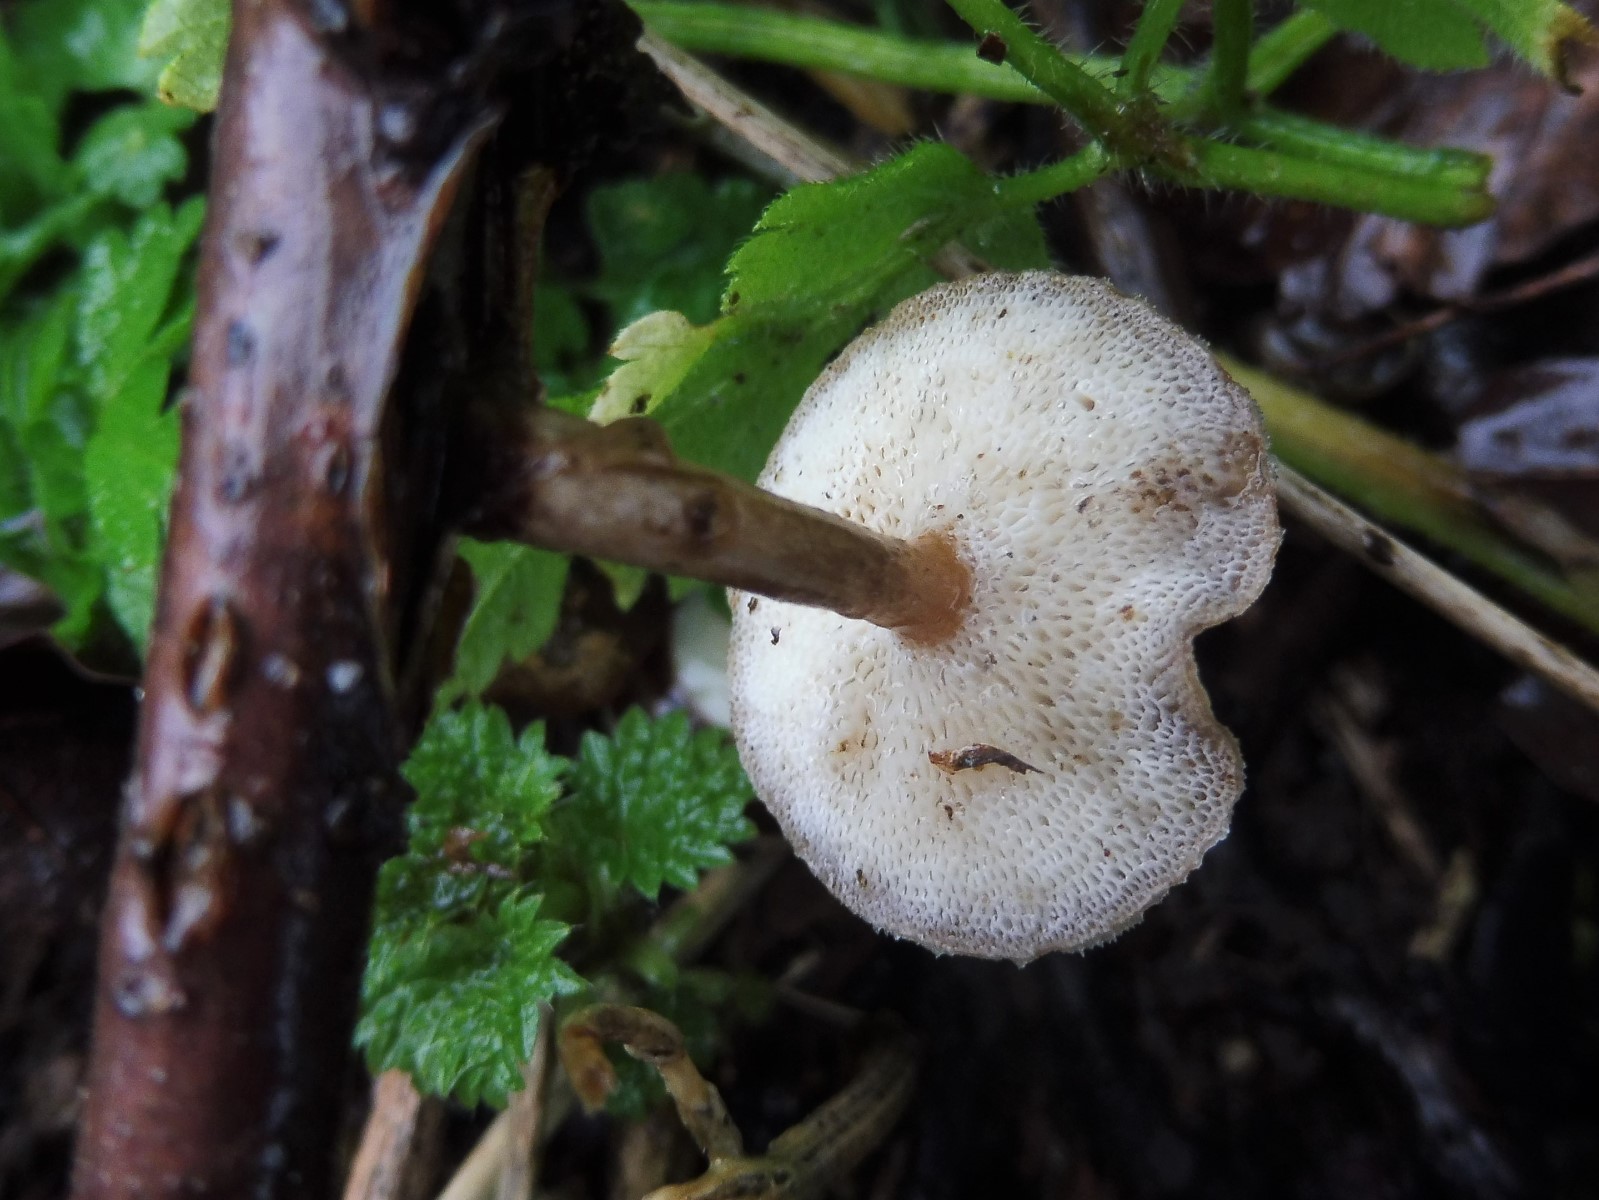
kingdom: Fungi
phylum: Basidiomycota
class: Agaricomycetes
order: Polyporales
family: Polyporaceae
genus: Lentinus
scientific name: Lentinus brumalis
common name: vinter-stilkporesvamp
